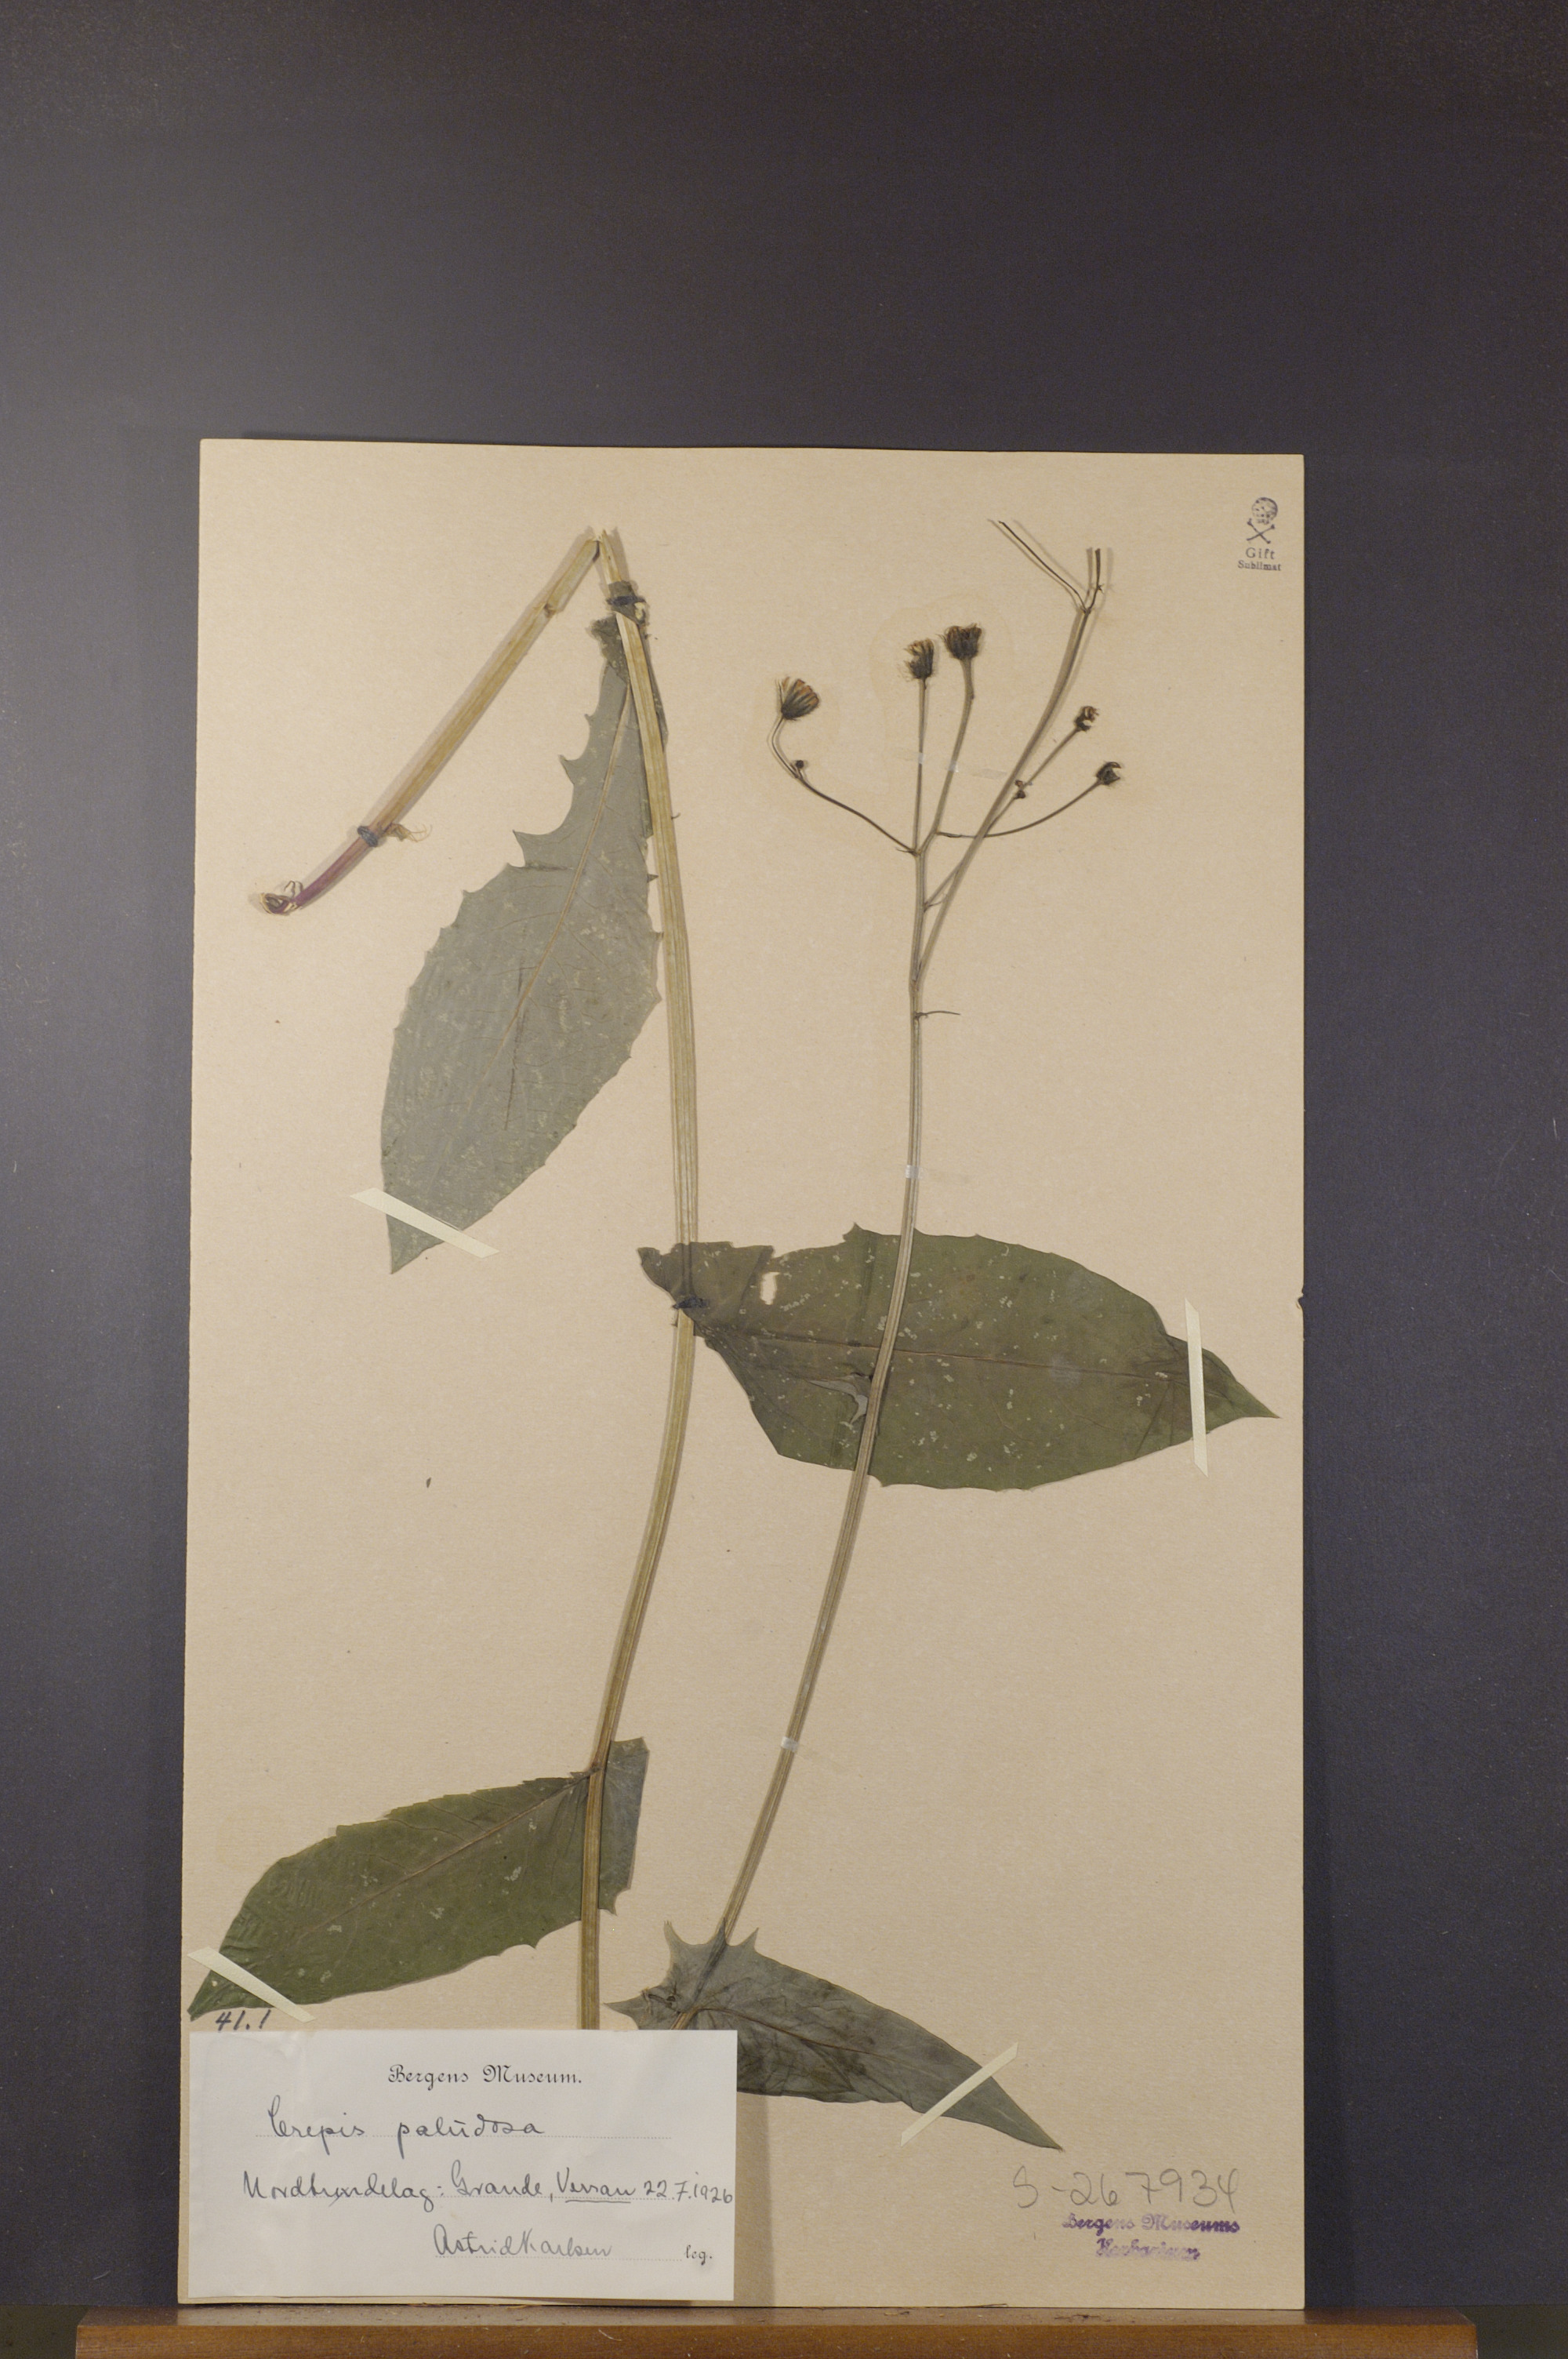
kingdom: Plantae
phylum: Tracheophyta
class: Magnoliopsida
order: Asterales
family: Asteraceae
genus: Crepis
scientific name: Crepis paludosa
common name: Marsh hawk's-beard
